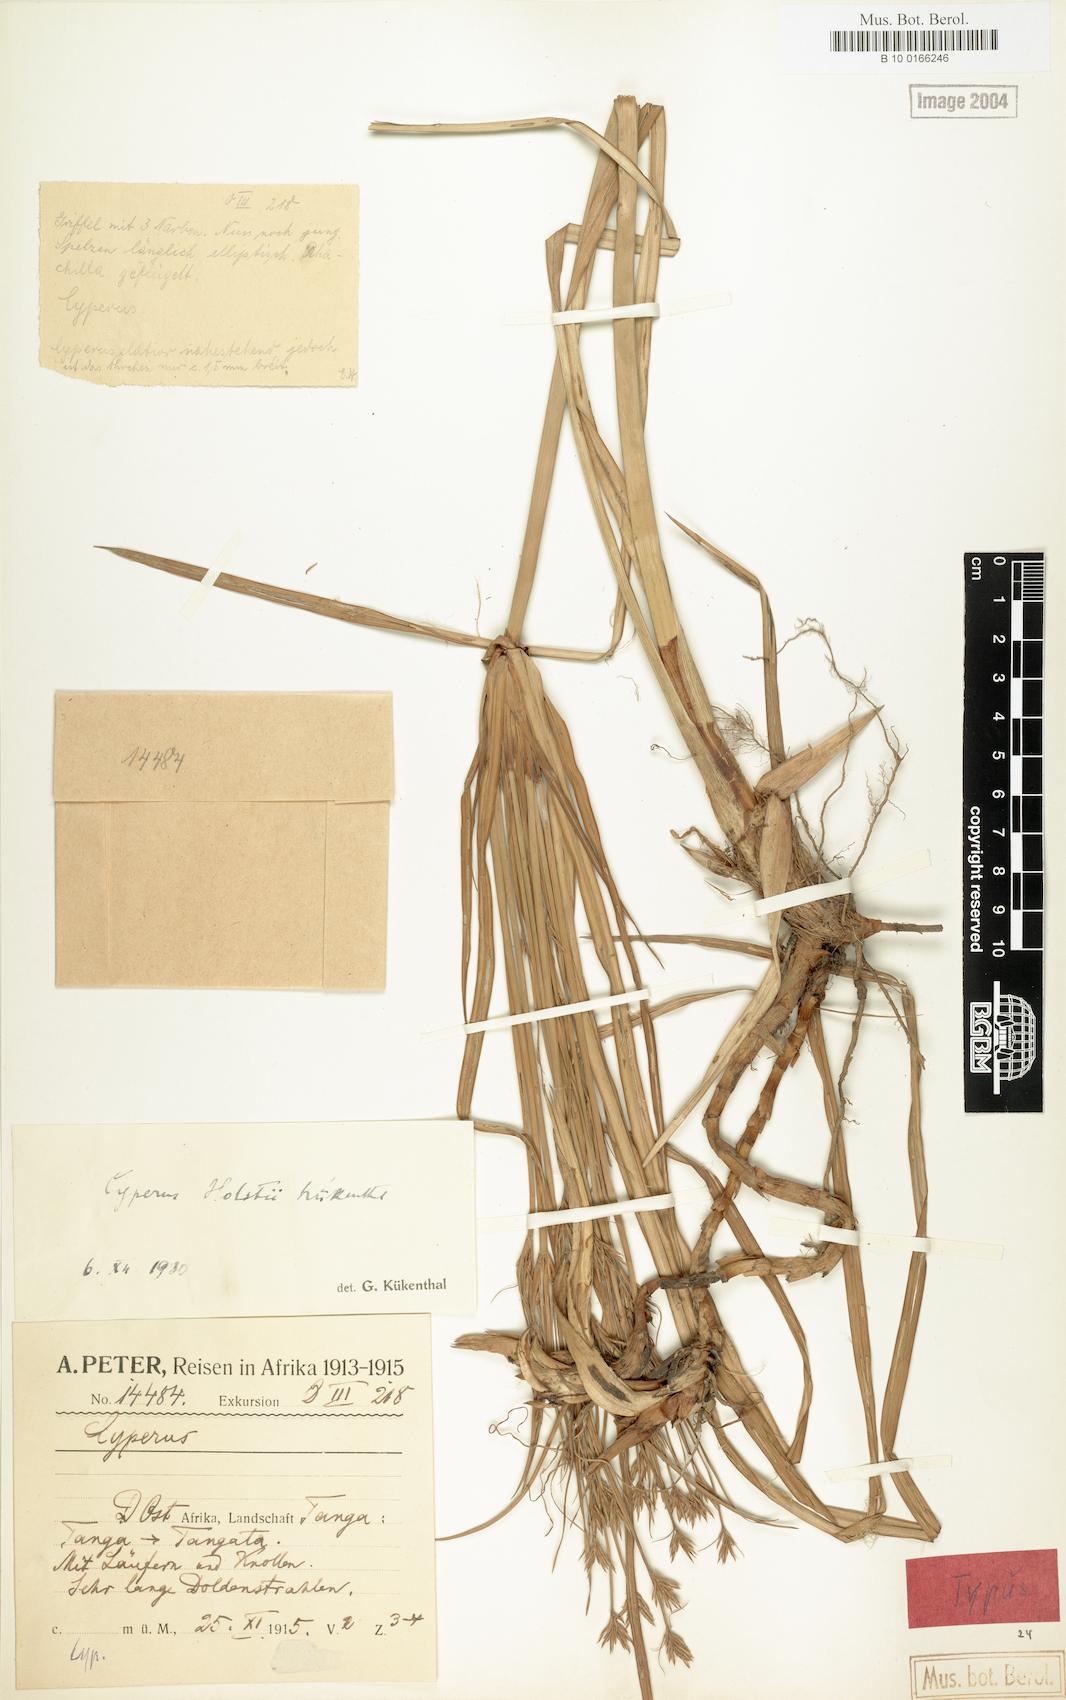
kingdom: Plantae
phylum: Tracheophyta
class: Liliopsida
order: Poales
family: Cyperaceae
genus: Cyperus
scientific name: Cyperus holstii
